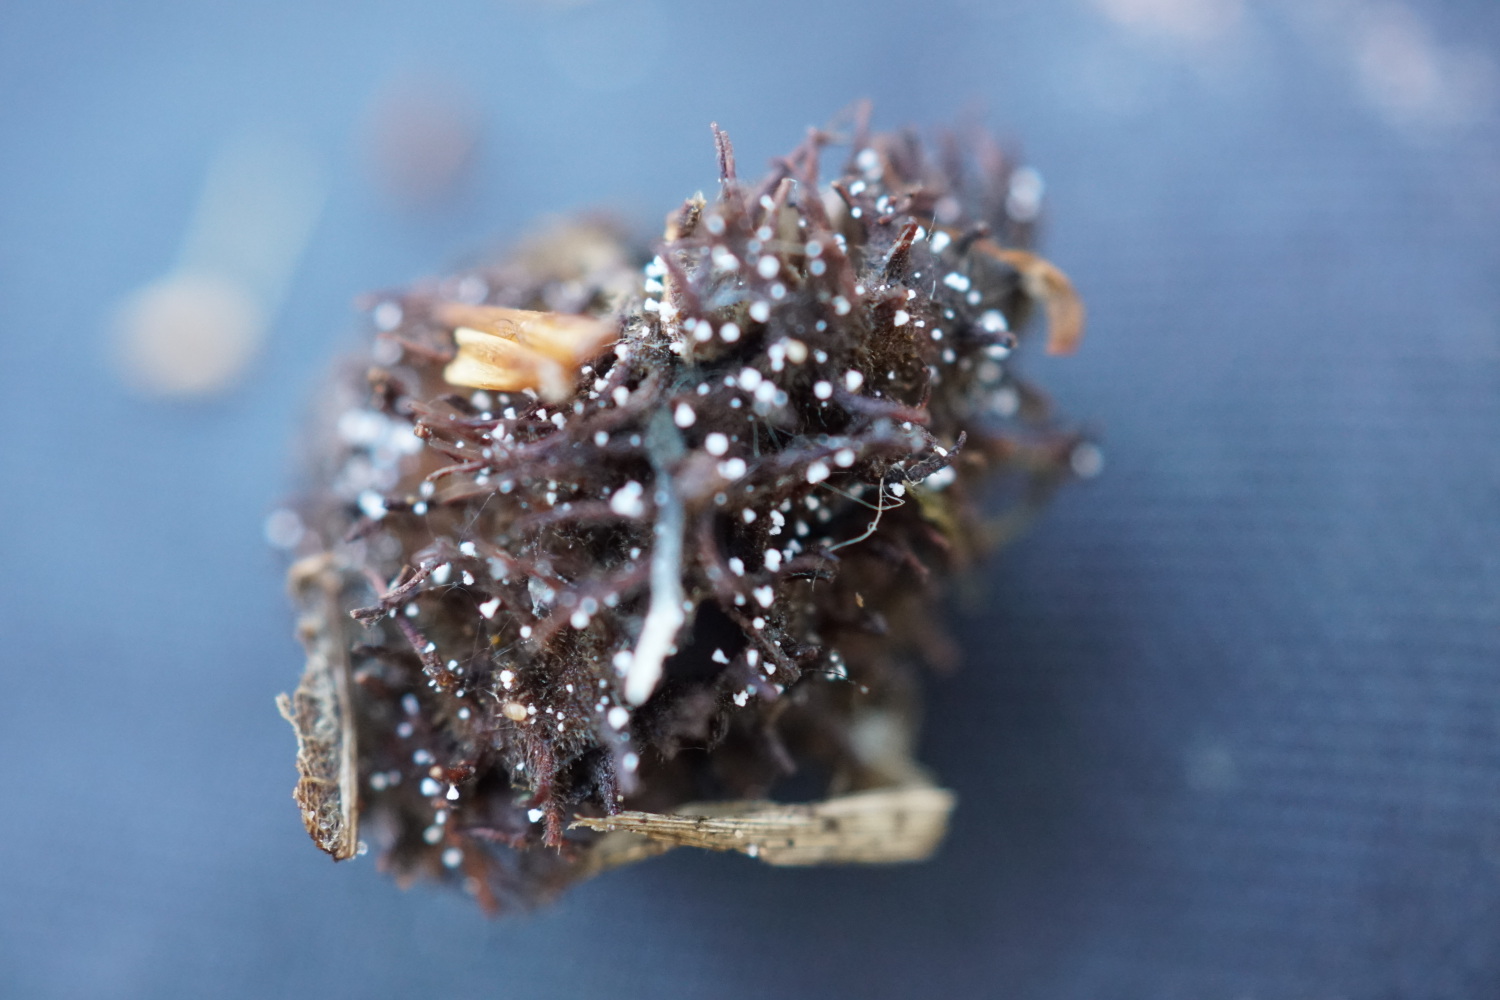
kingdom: Fungi
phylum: Ascomycota
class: Leotiomycetes
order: Helotiales
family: Lachnaceae
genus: Lachnum
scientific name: Lachnum virgineum
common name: jomfru-frynseskive
